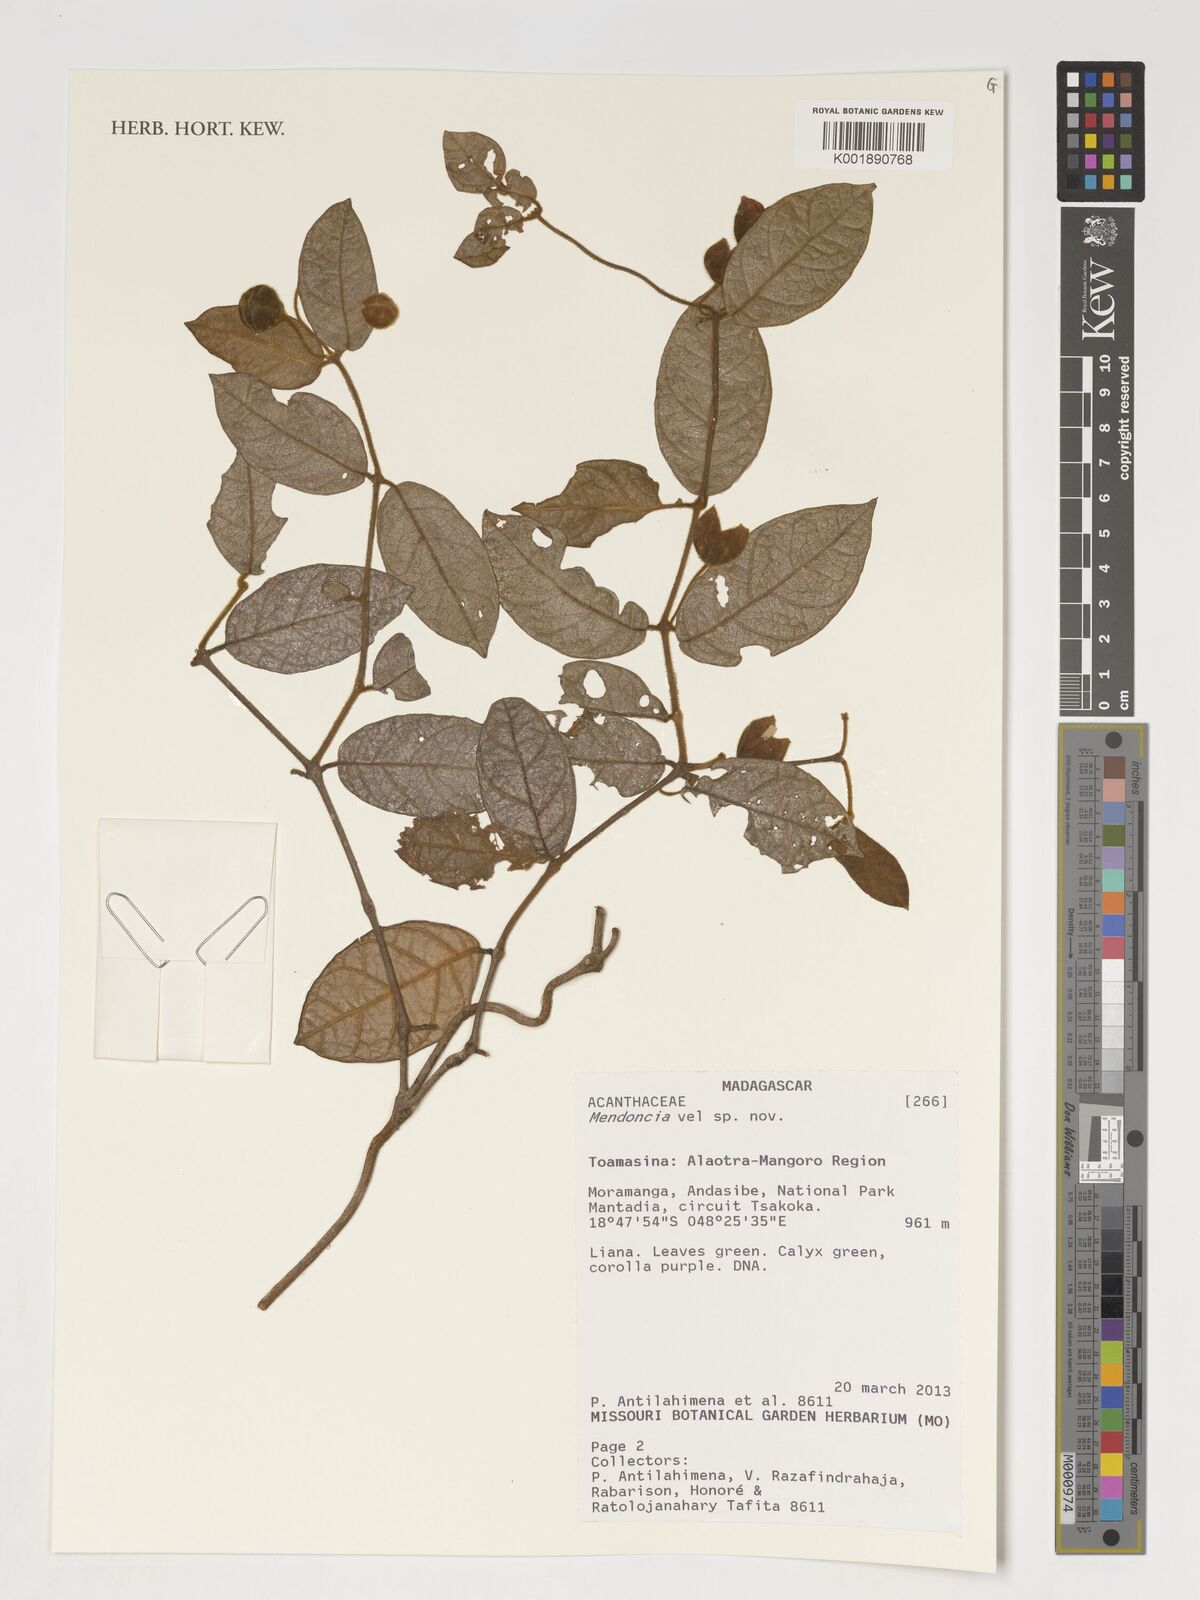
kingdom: Plantae
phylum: Tracheophyta
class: Magnoliopsida
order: Lamiales
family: Acanthaceae
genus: Mendoncia
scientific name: Mendoncia
